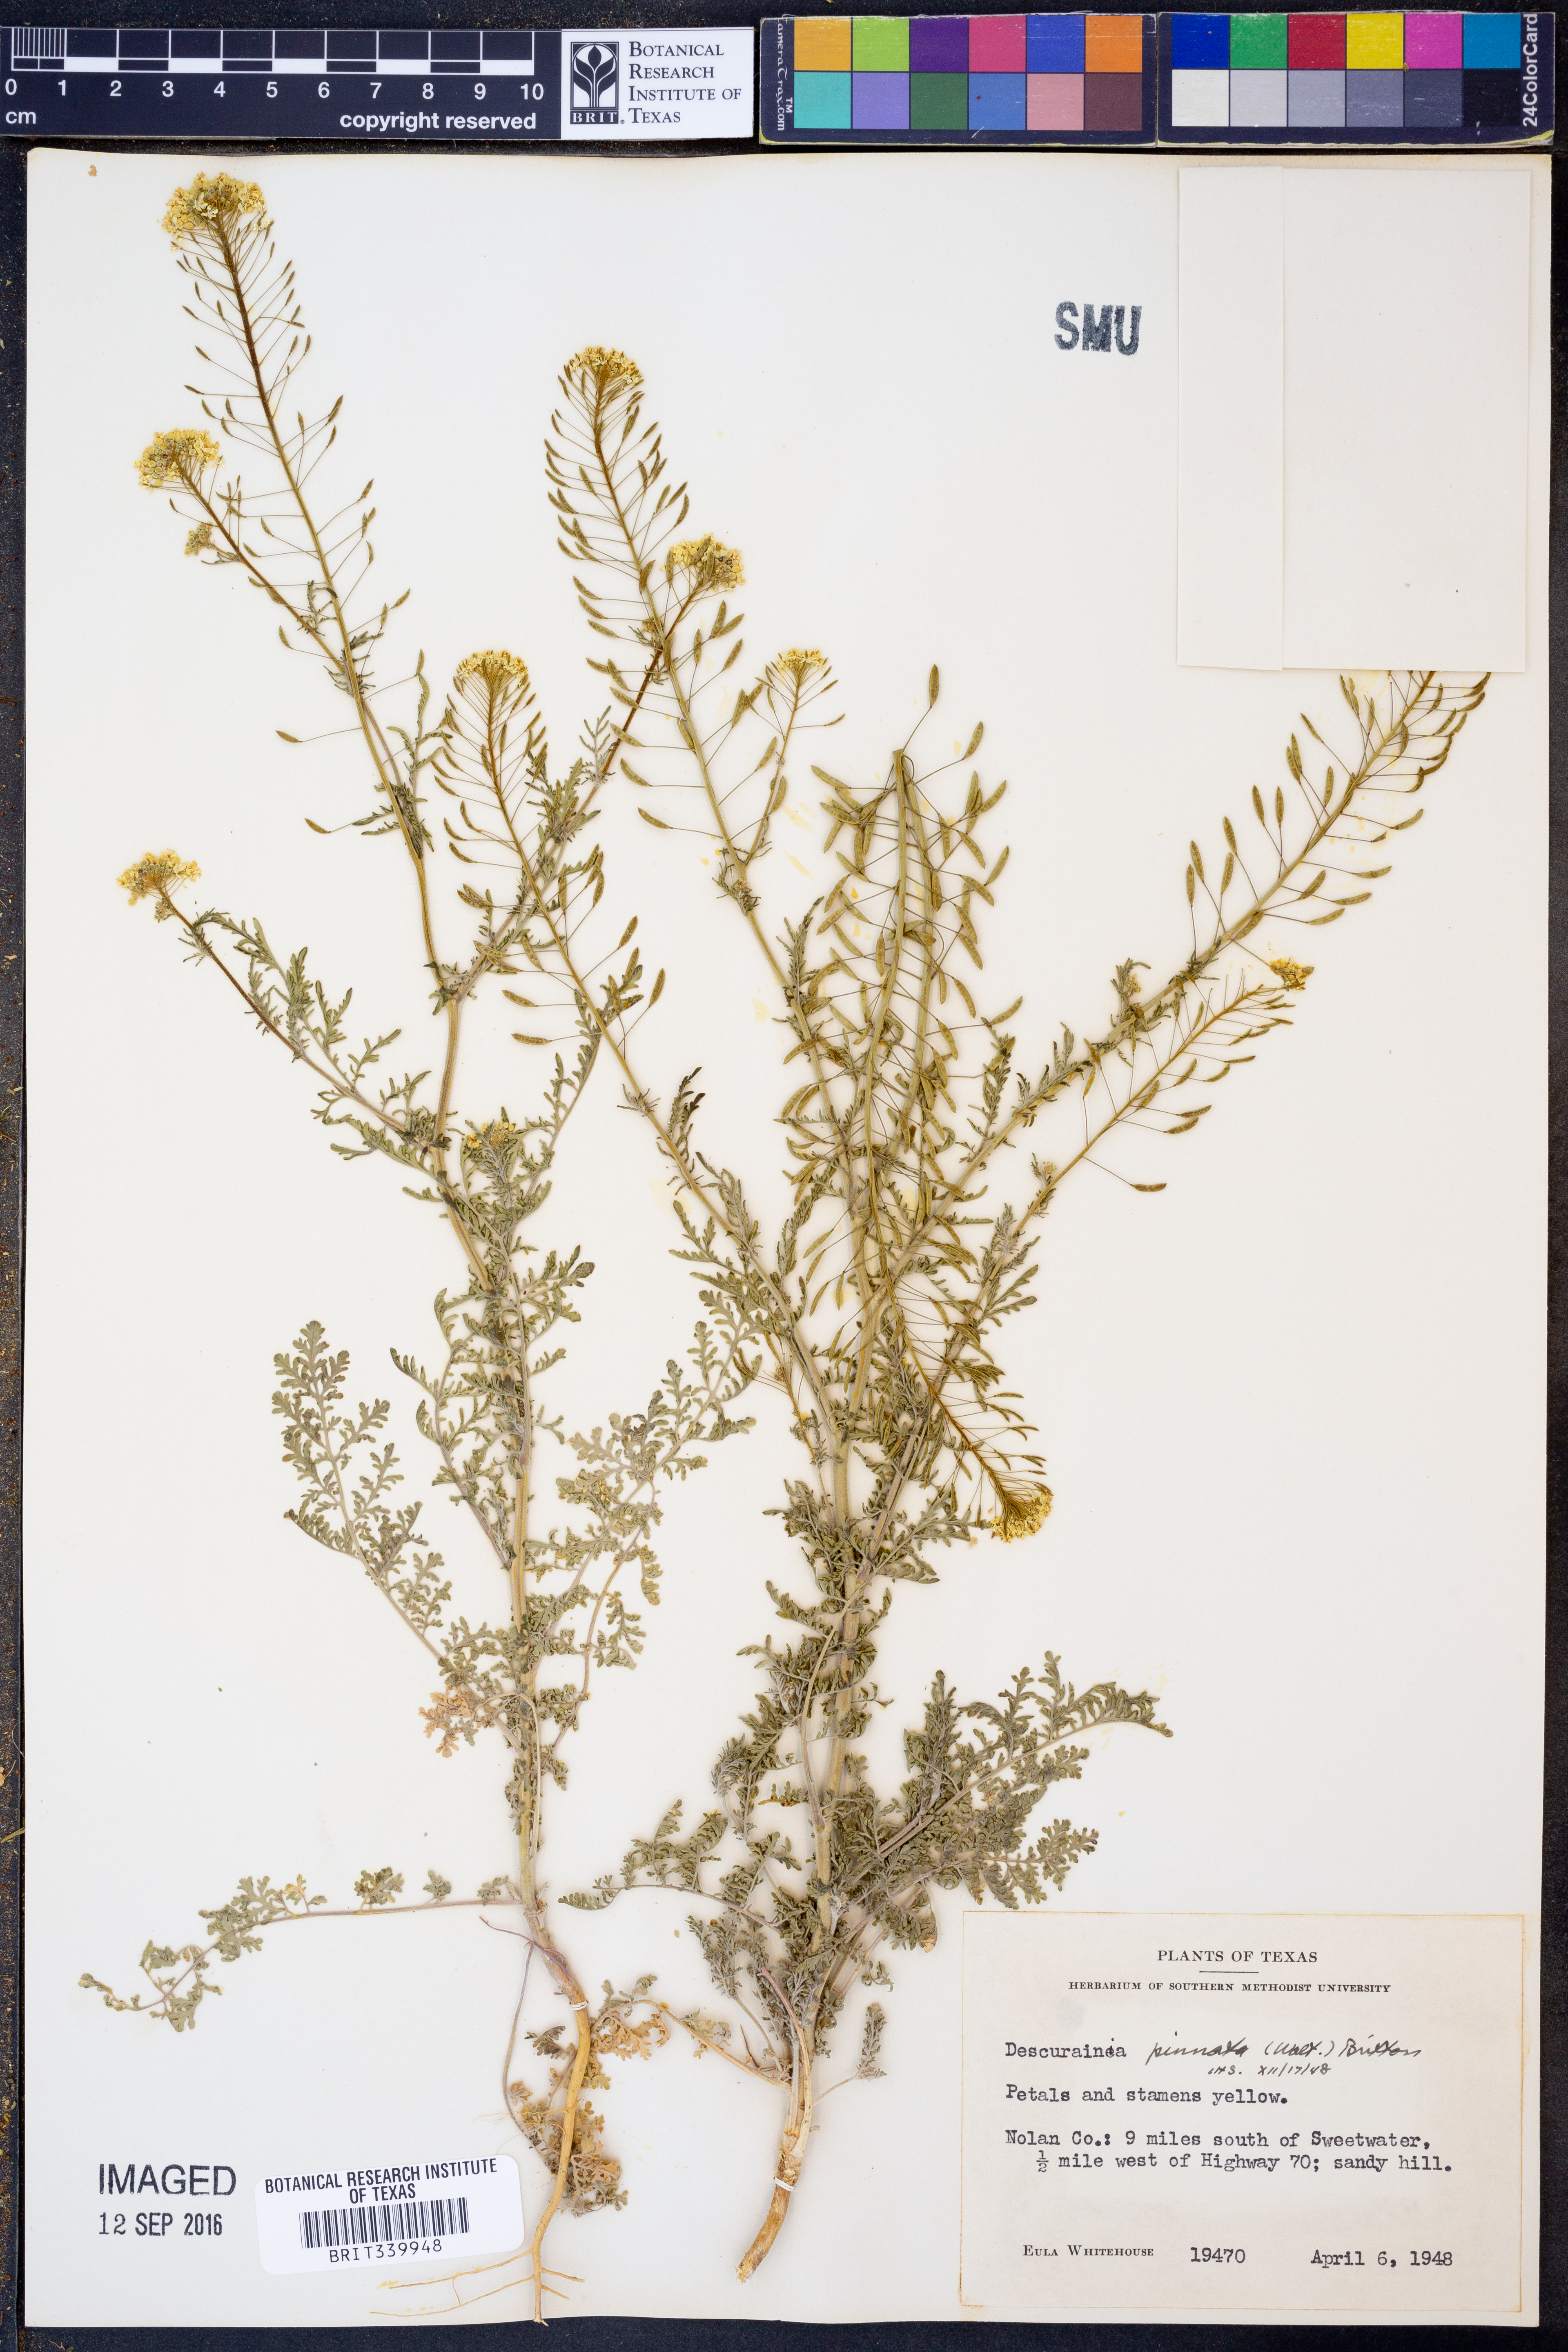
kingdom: Plantae
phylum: Tracheophyta
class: Magnoliopsida
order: Brassicales
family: Brassicaceae
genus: Descurainia
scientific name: Descurainia pinnata
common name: Western tansy mustard
